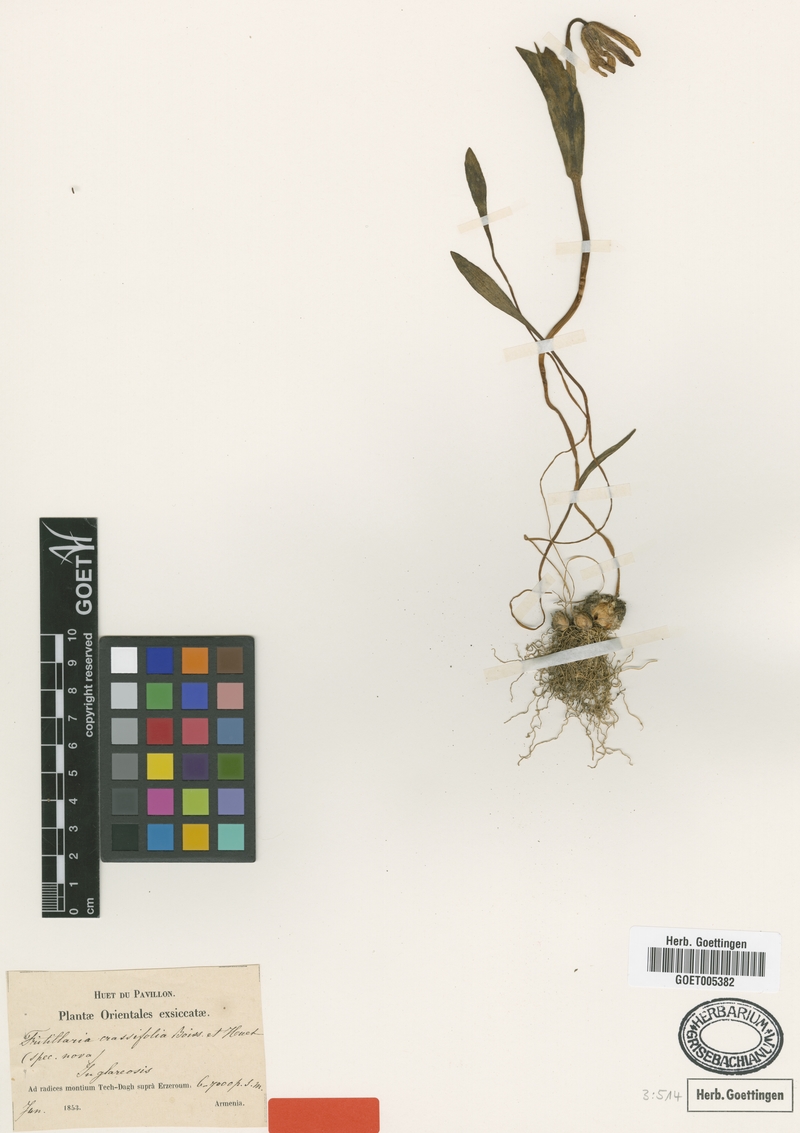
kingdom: Plantae
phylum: Tracheophyta
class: Liliopsida
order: Liliales
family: Liliaceae
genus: Fritillaria
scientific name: Fritillaria crassifolia
